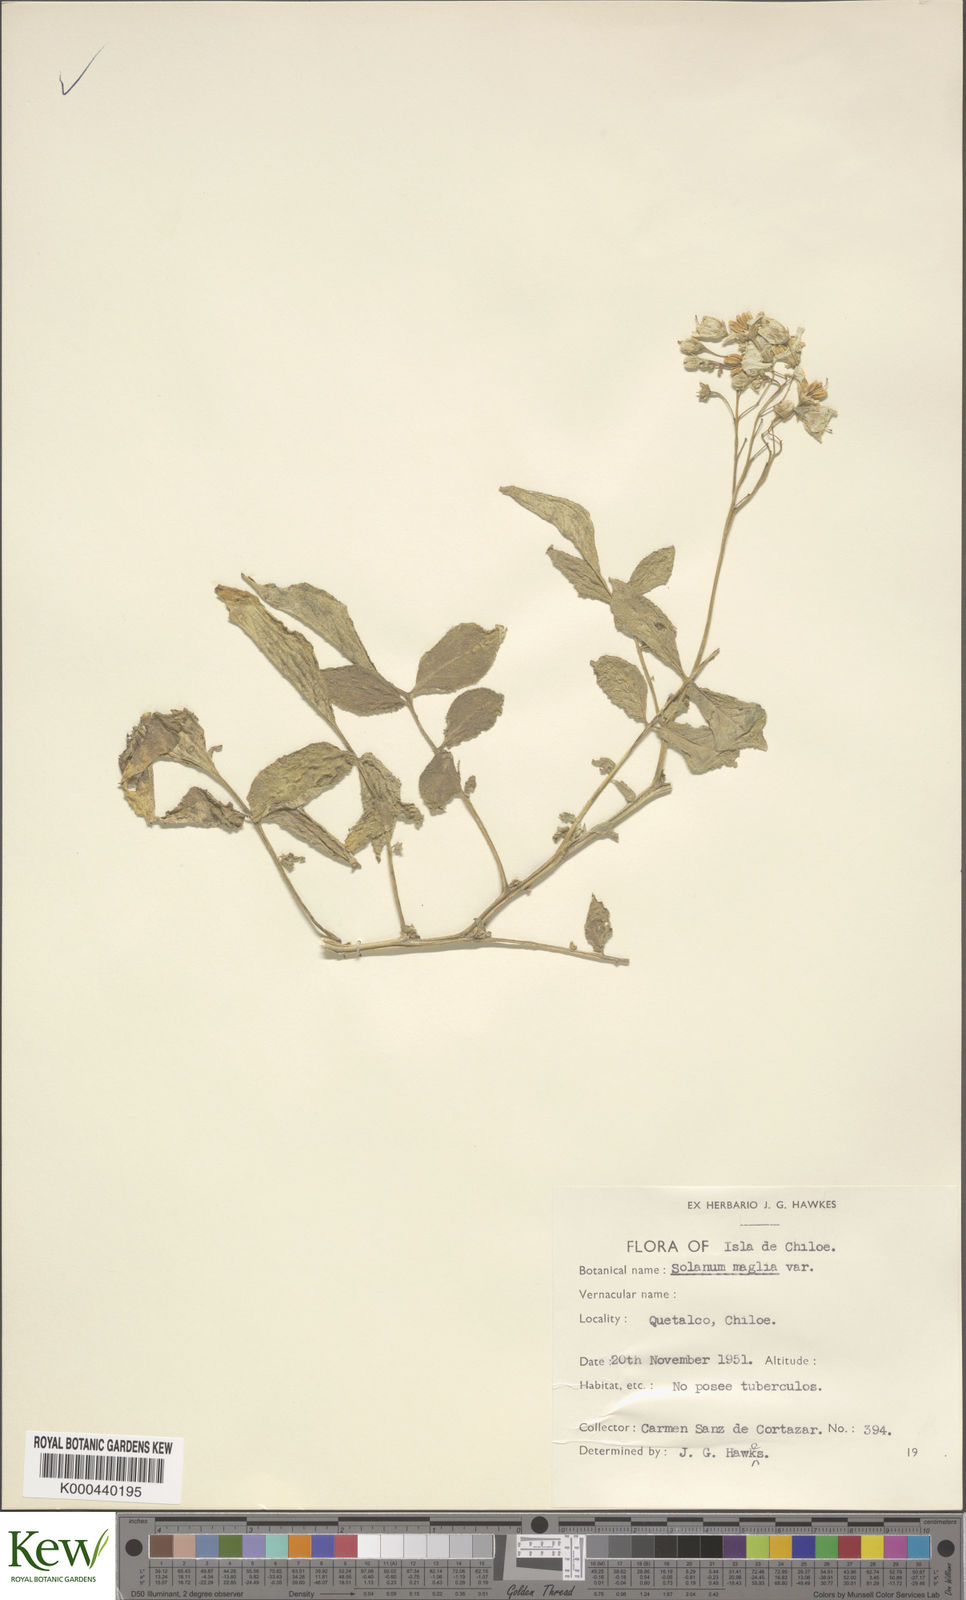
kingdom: Plantae
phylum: Tracheophyta
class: Magnoliopsida
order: Solanales
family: Solanaceae
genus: Solanum
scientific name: Solanum maglia
